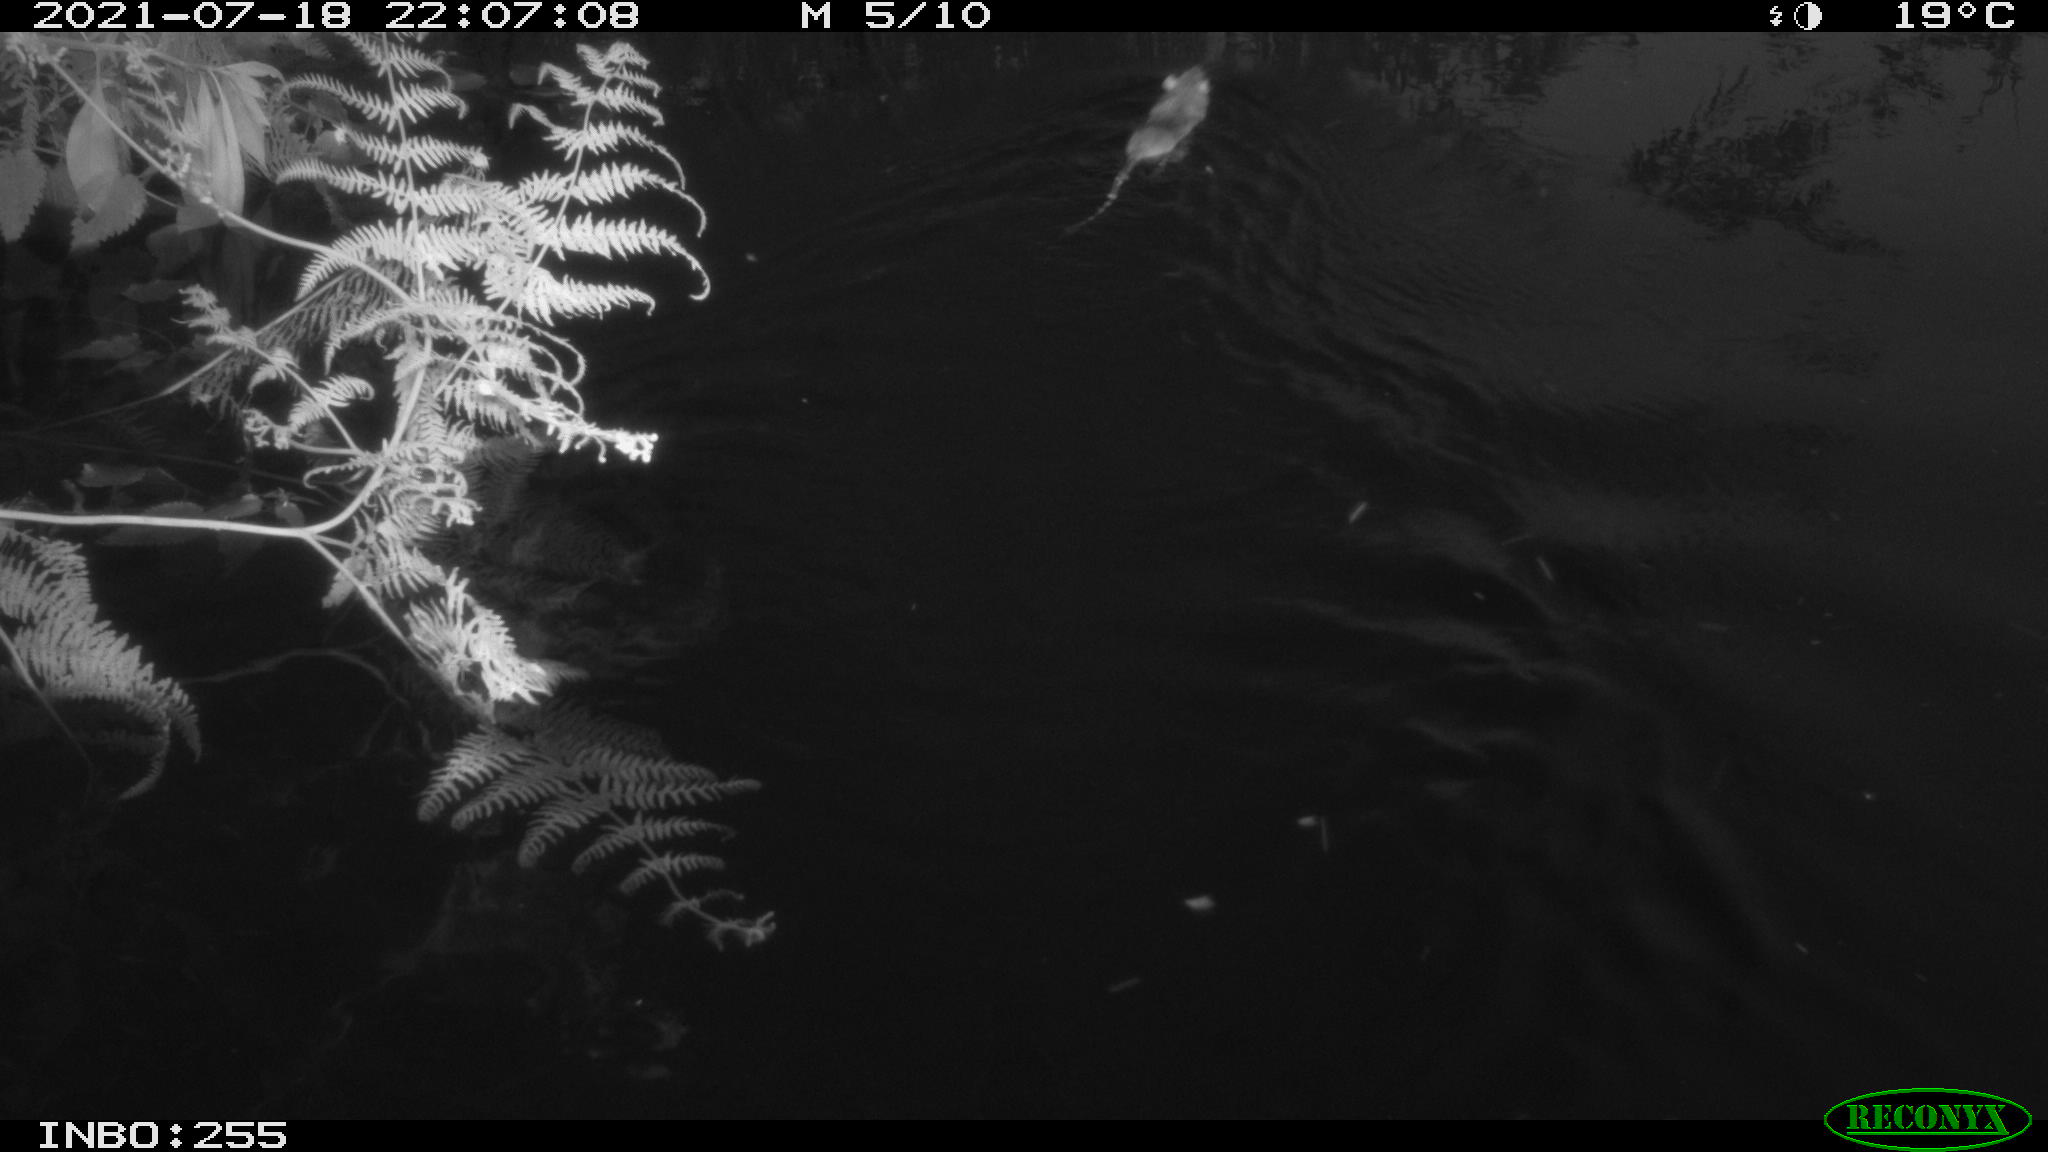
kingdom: Animalia
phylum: Chordata
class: Mammalia
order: Rodentia
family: Muridae
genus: Rattus
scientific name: Rattus norvegicus
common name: Brown rat
